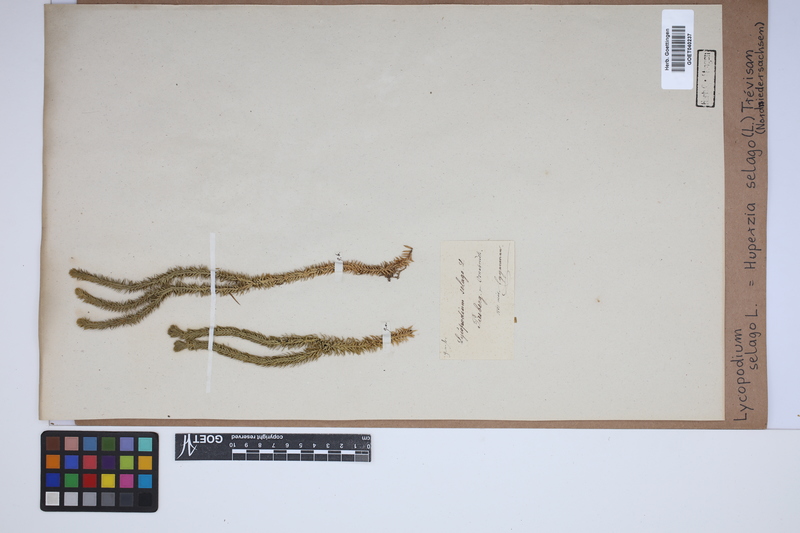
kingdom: Plantae
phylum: Tracheophyta
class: Lycopodiopsida
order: Lycopodiales
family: Lycopodiaceae
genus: Huperzia
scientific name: Huperzia selago
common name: Northern firmoss
